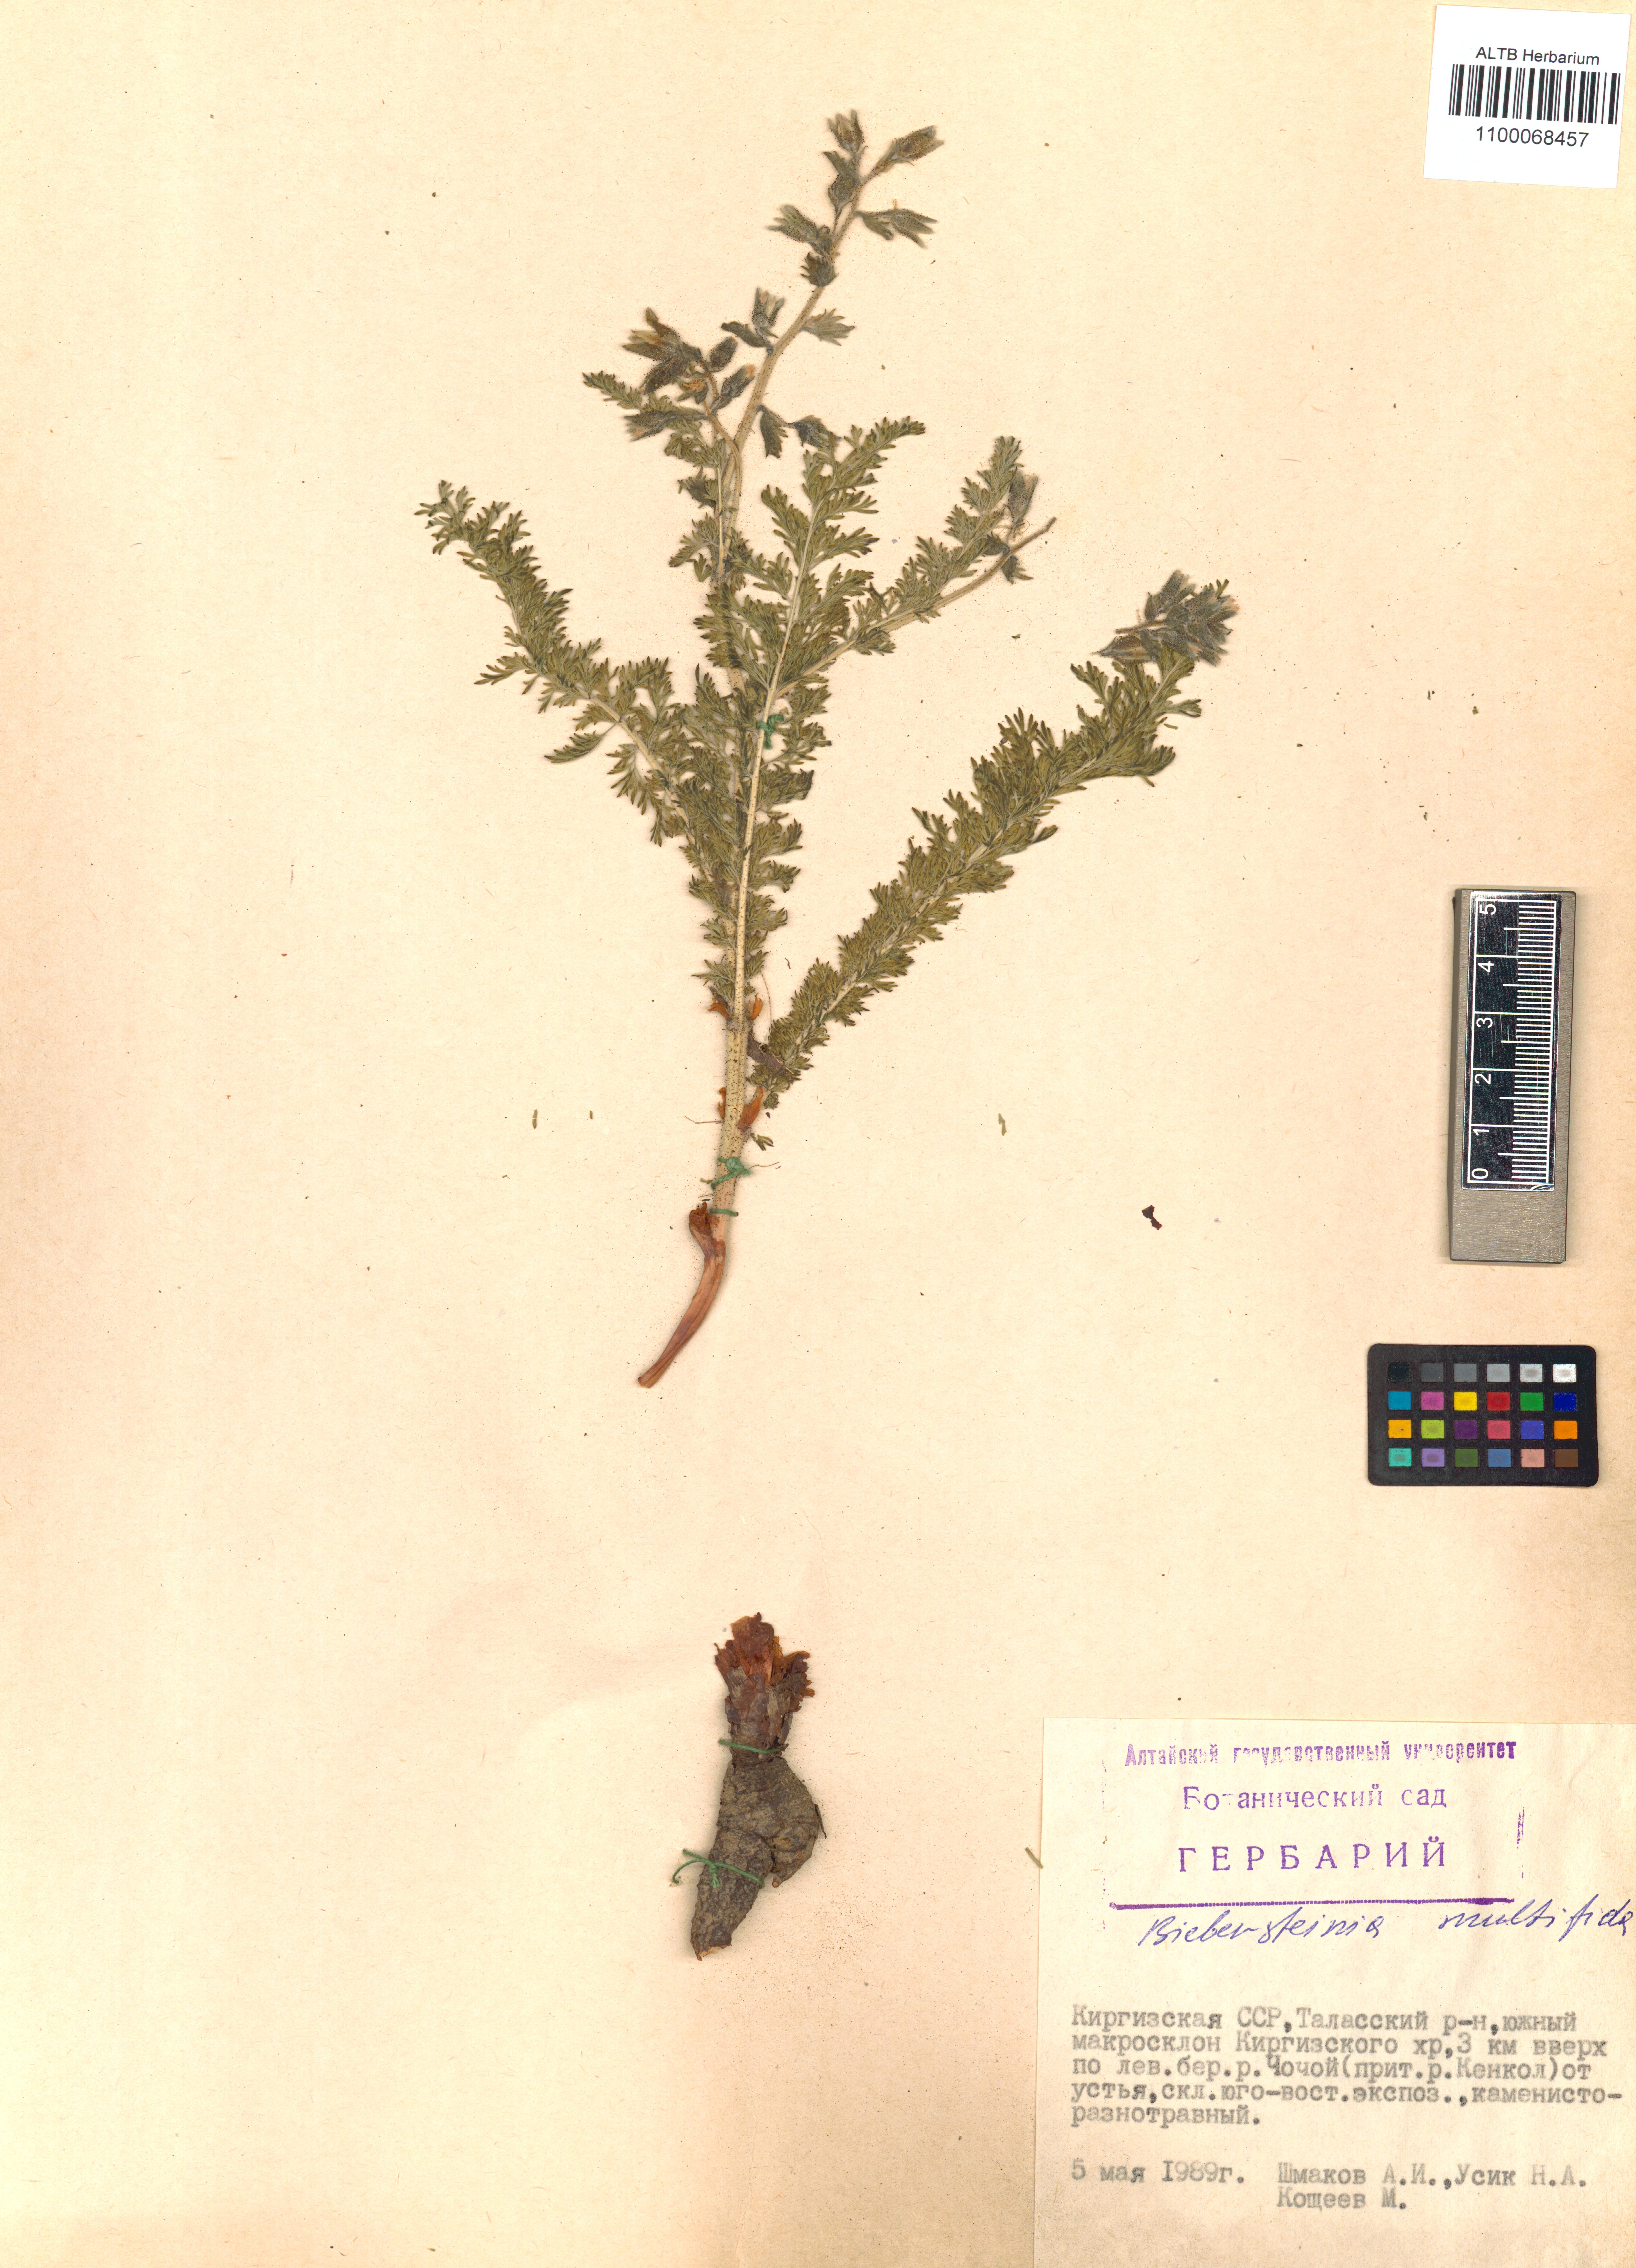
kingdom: Plantae
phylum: Tracheophyta
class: Magnoliopsida
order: Sapindales
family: Biebersteiniaceae
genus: Biebersteinia
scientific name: Biebersteinia multifida
